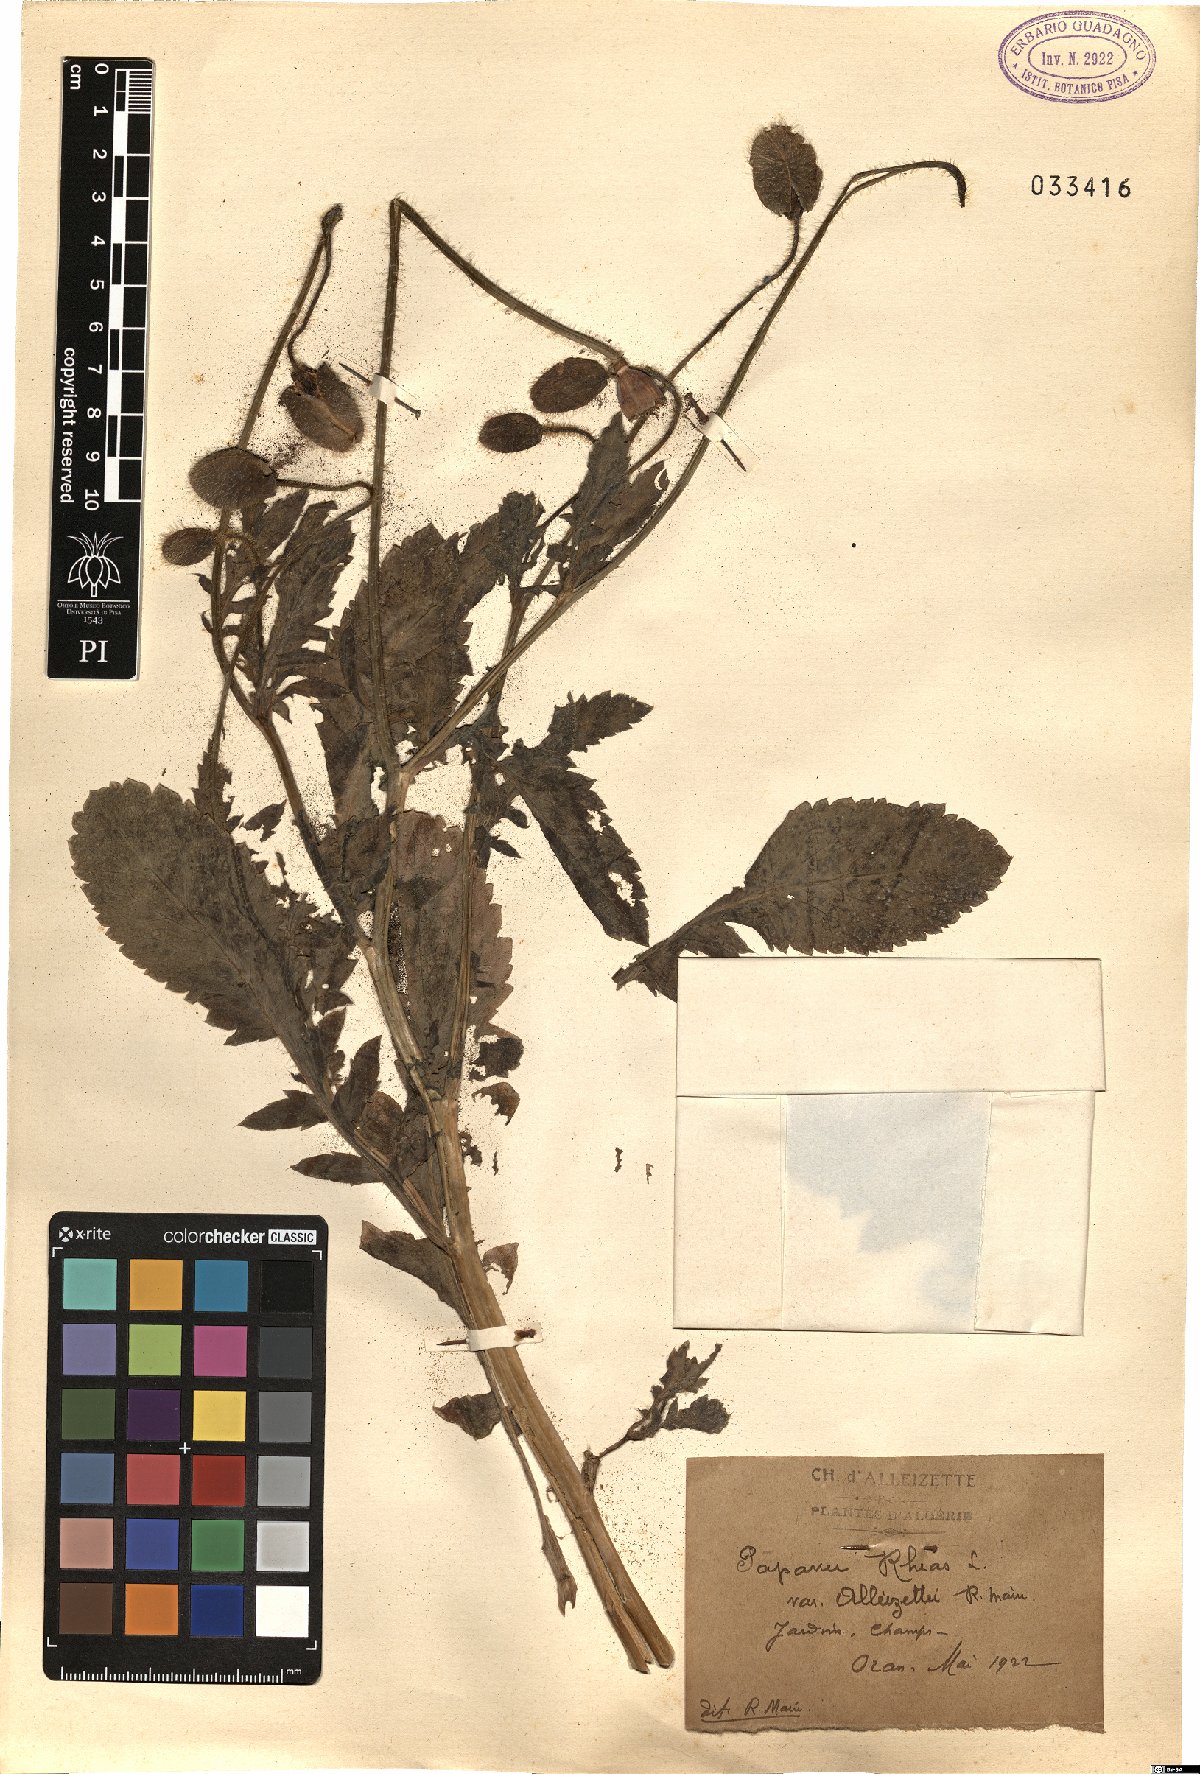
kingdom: Plantae
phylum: Tracheophyta
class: Magnoliopsida
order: Ranunculales
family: Papaveraceae
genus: Papaver
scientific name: Papaver rhoeas
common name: Corn poppy
